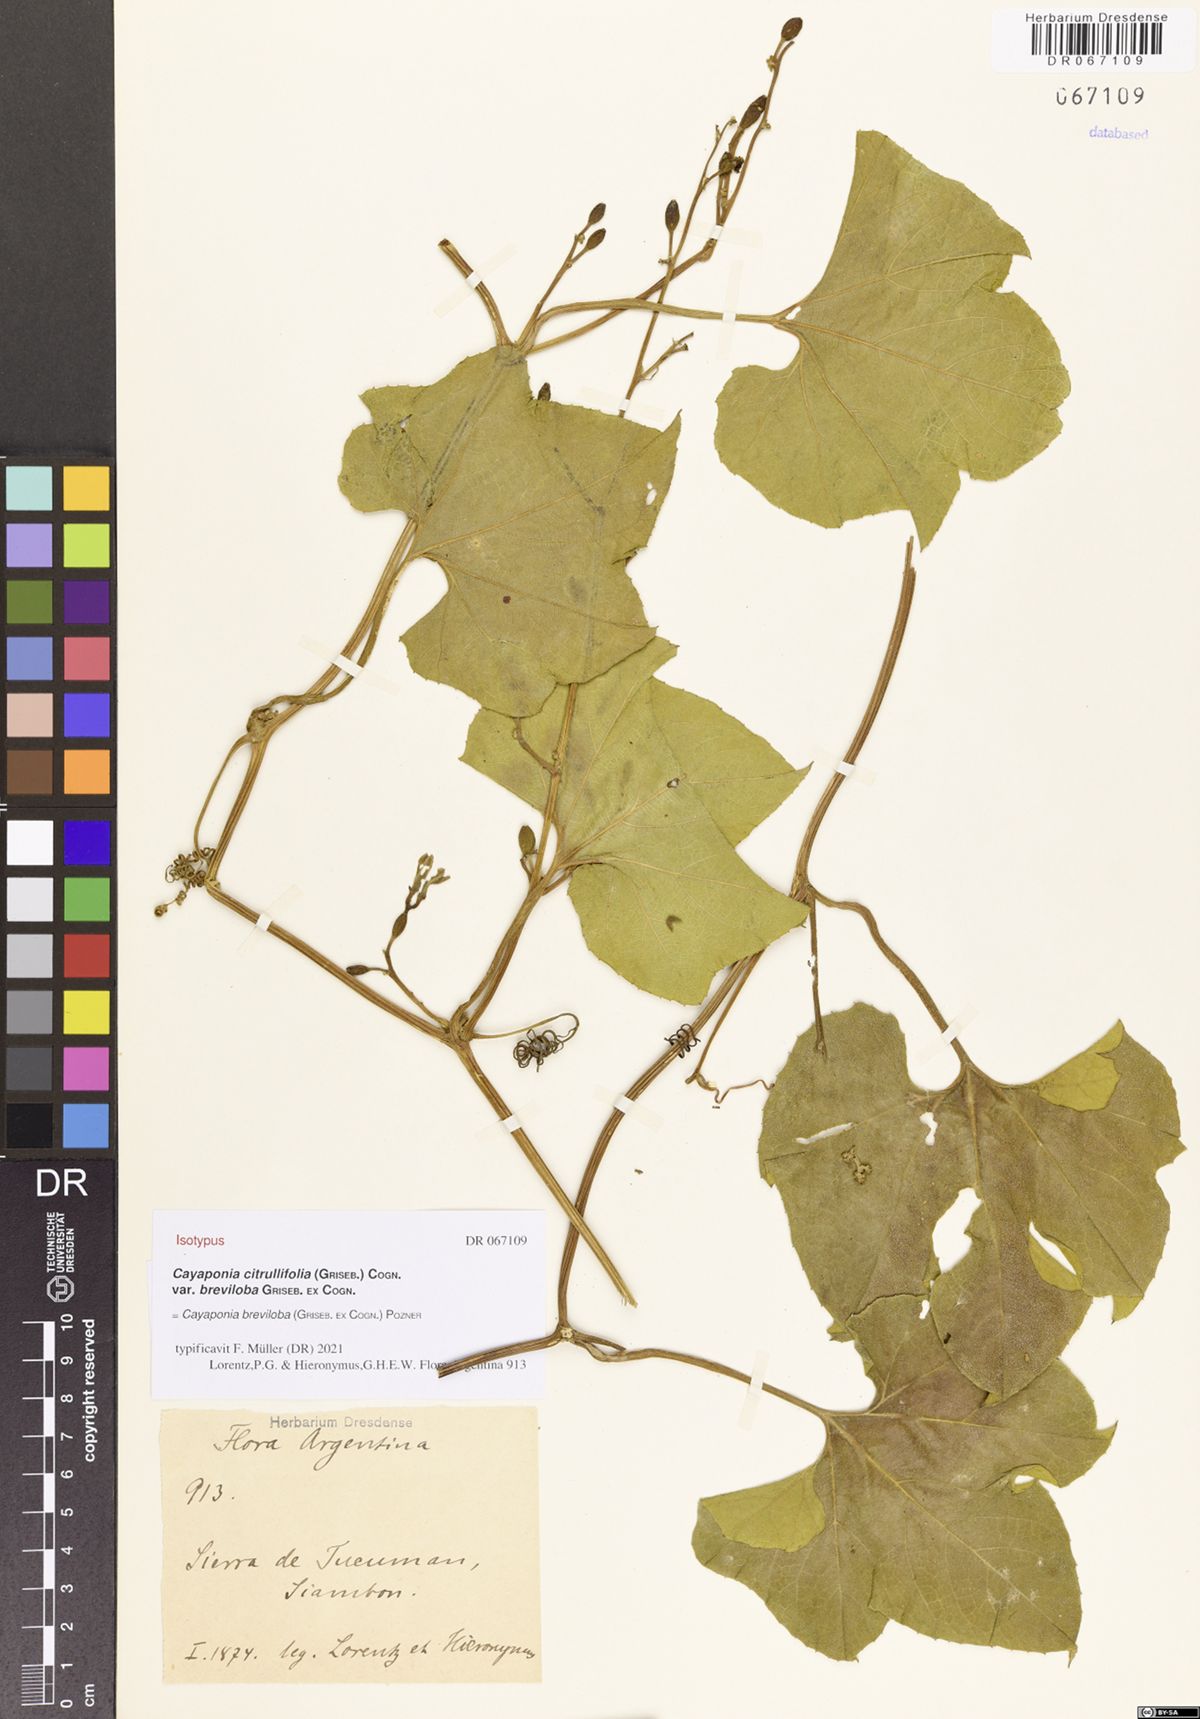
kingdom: Plantae
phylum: Tracheophyta
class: Magnoliopsida
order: Cucurbitales
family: Cucurbitaceae
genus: Cayaponia
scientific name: Cayaponia breviloba
